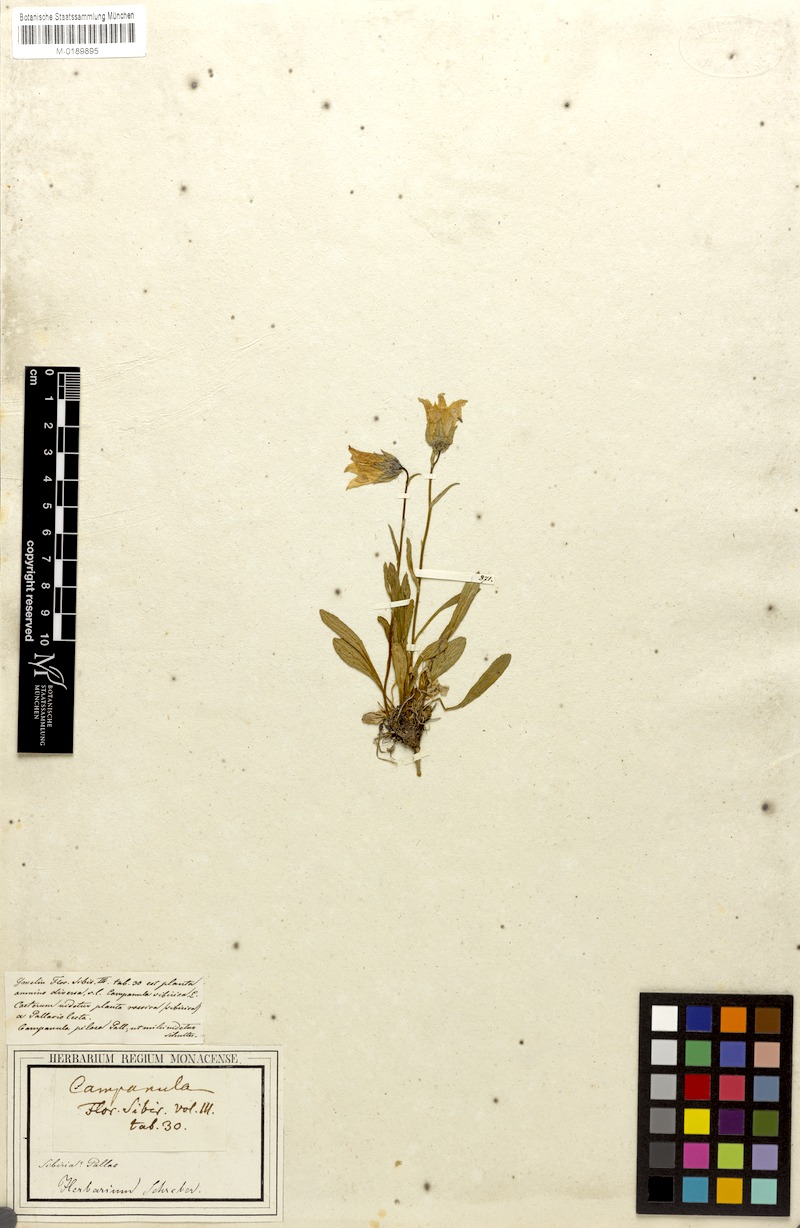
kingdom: Plantae
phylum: Tracheophyta
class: Magnoliopsida
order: Asterales
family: Campanulaceae
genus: Campanula
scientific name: Campanula dasyantha
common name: Hairyflower bellflower
